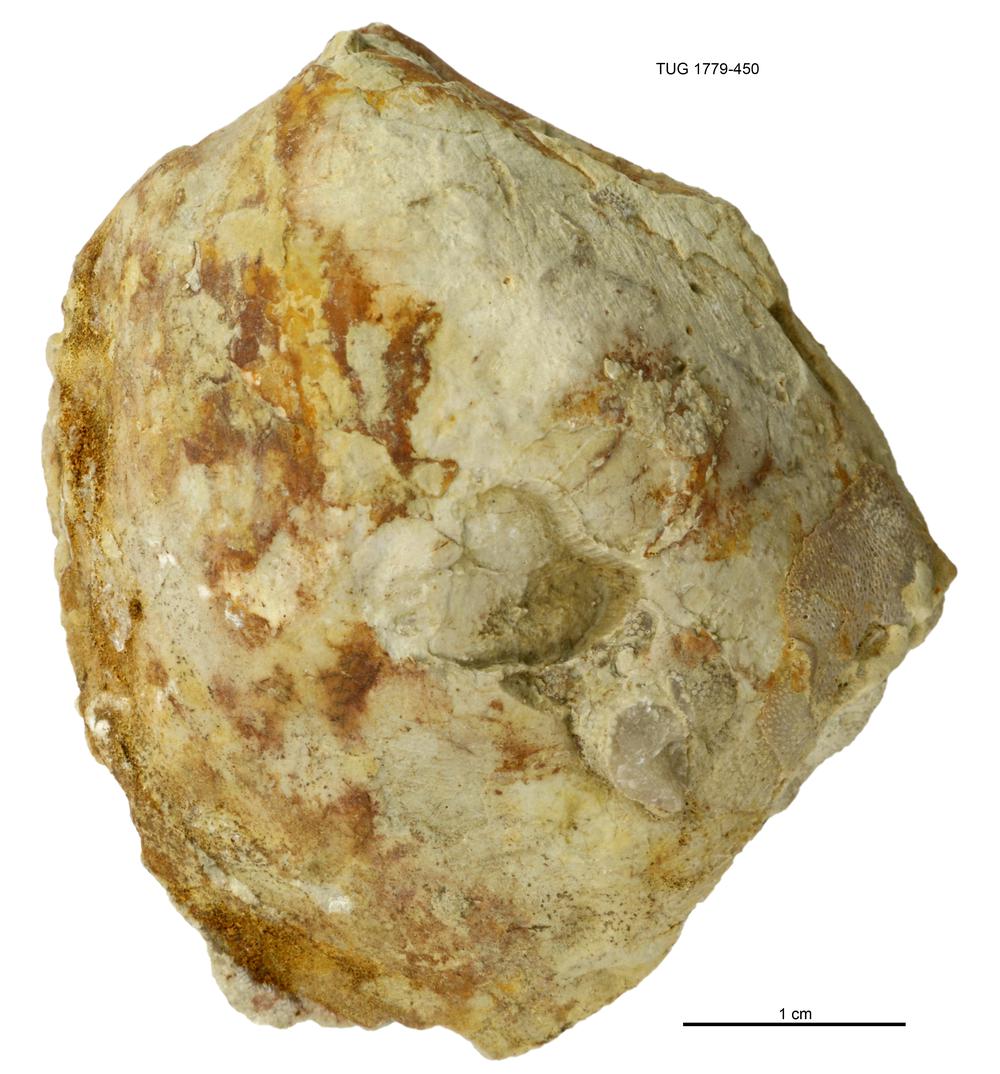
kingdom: Animalia
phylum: Mollusca
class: Bivalvia
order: Modiomorphida
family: Modiomorphidae
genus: Modiolopsis
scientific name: Modiolopsis
